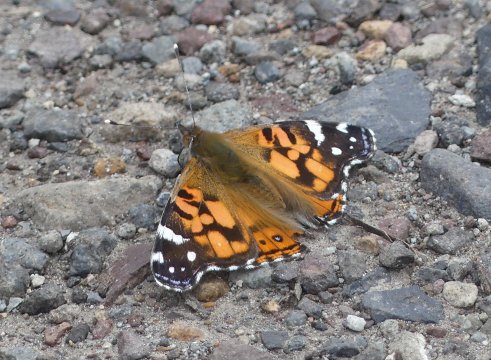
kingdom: Animalia
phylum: Arthropoda
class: Insecta
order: Lepidoptera
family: Nymphalidae
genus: Vanessa
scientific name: Vanessa virginiensis
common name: American Lady
